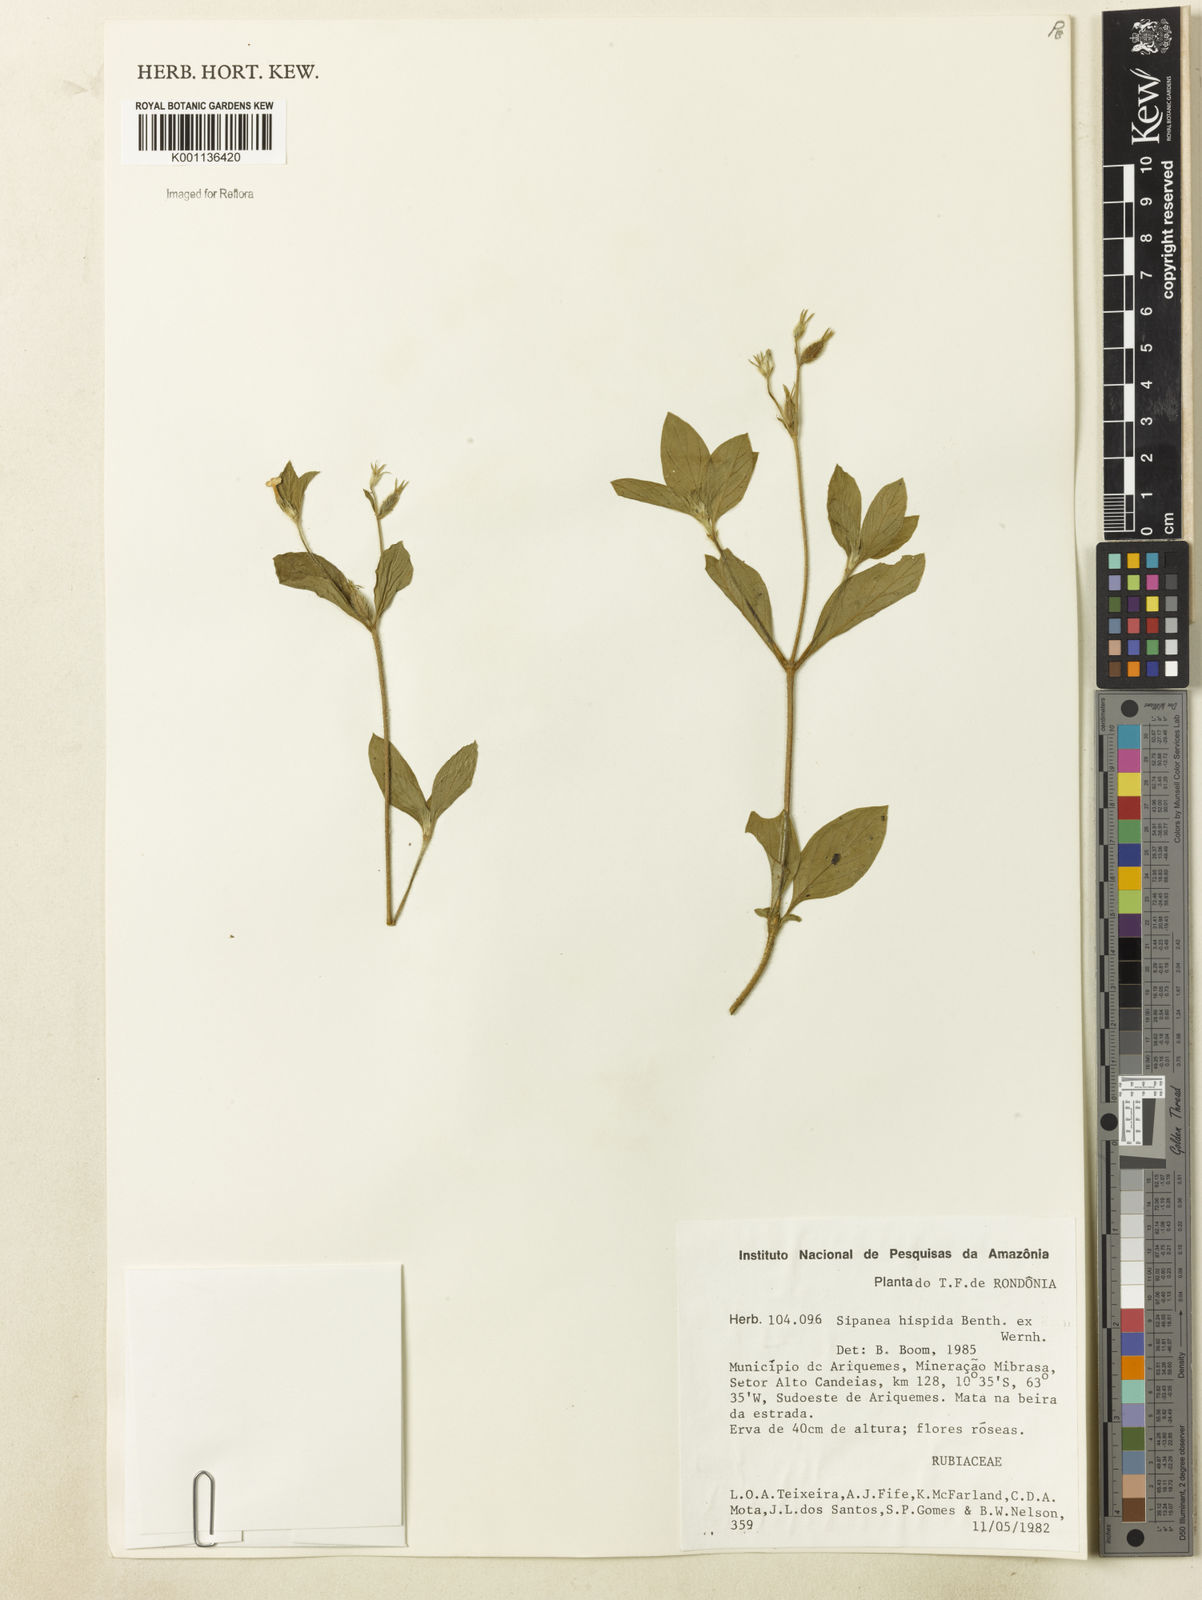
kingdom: Plantae
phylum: Tracheophyta
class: Magnoliopsida
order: Gentianales
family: Rubiaceae
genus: Sipanea
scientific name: Sipanea hispida
